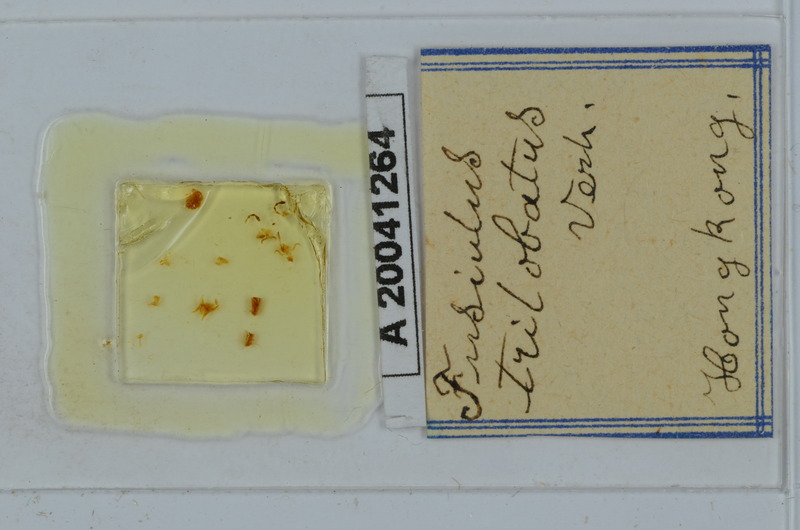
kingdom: Animalia
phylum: Arthropoda
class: Diplopoda
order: Julida
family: Julidae
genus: Fusiulus
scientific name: Fusiulus trilobus
